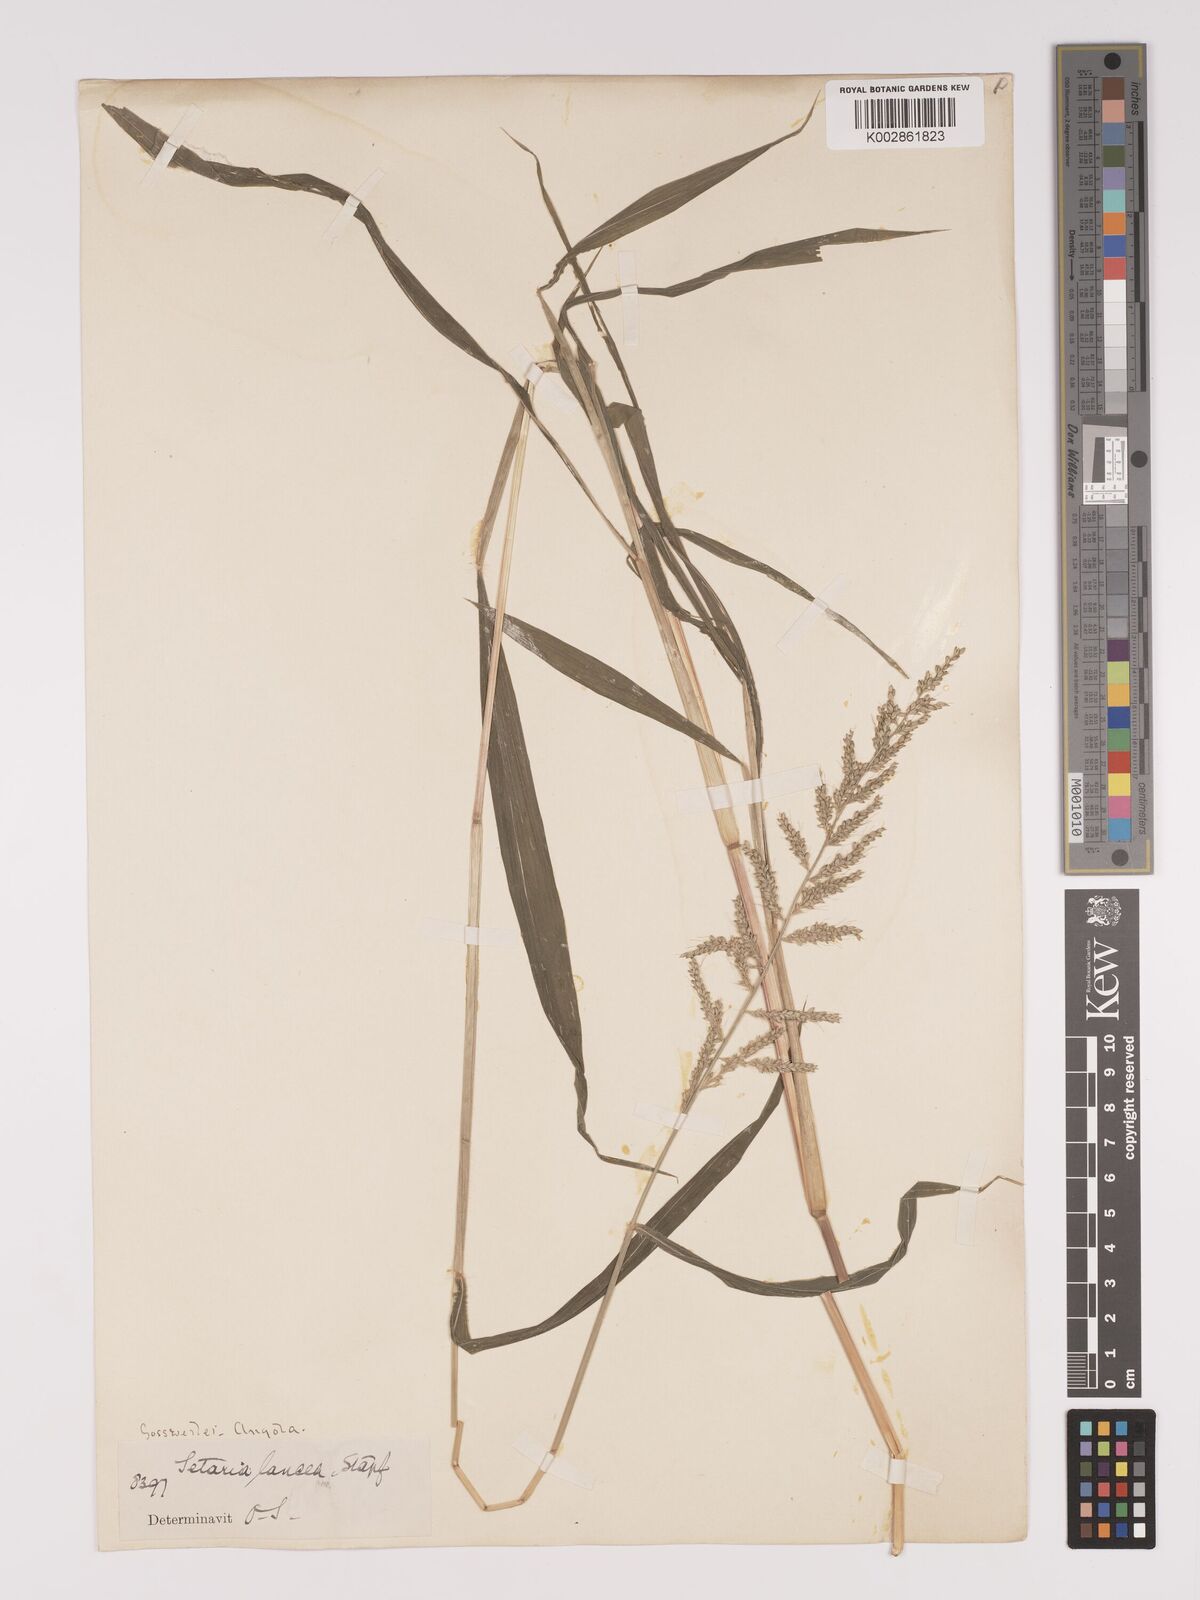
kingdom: Plantae
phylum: Tracheophyta
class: Liliopsida
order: Poales
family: Poaceae
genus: Setaria
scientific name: Setaria barbata
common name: East indian bristlegrass
